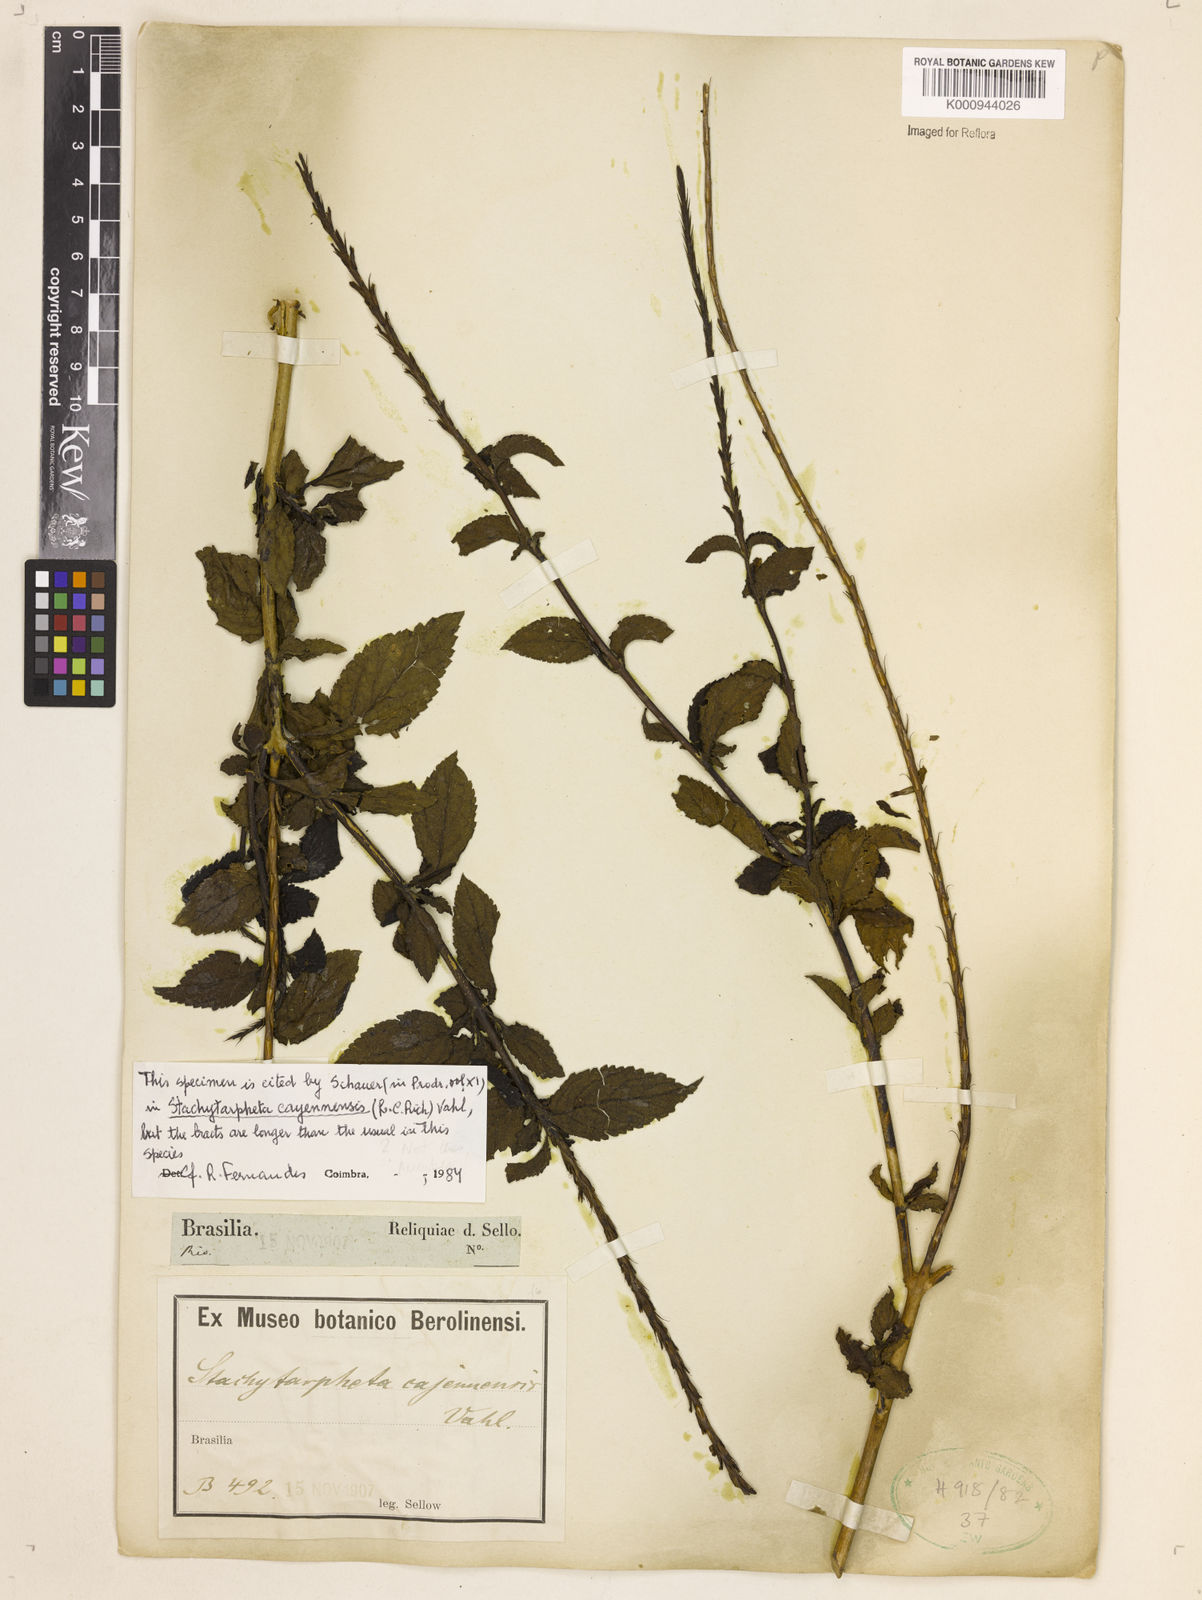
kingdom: Plantae
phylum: Tracheophyta
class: Magnoliopsida
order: Lamiales
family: Verbenaceae
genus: Aloysia
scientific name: Aloysia
